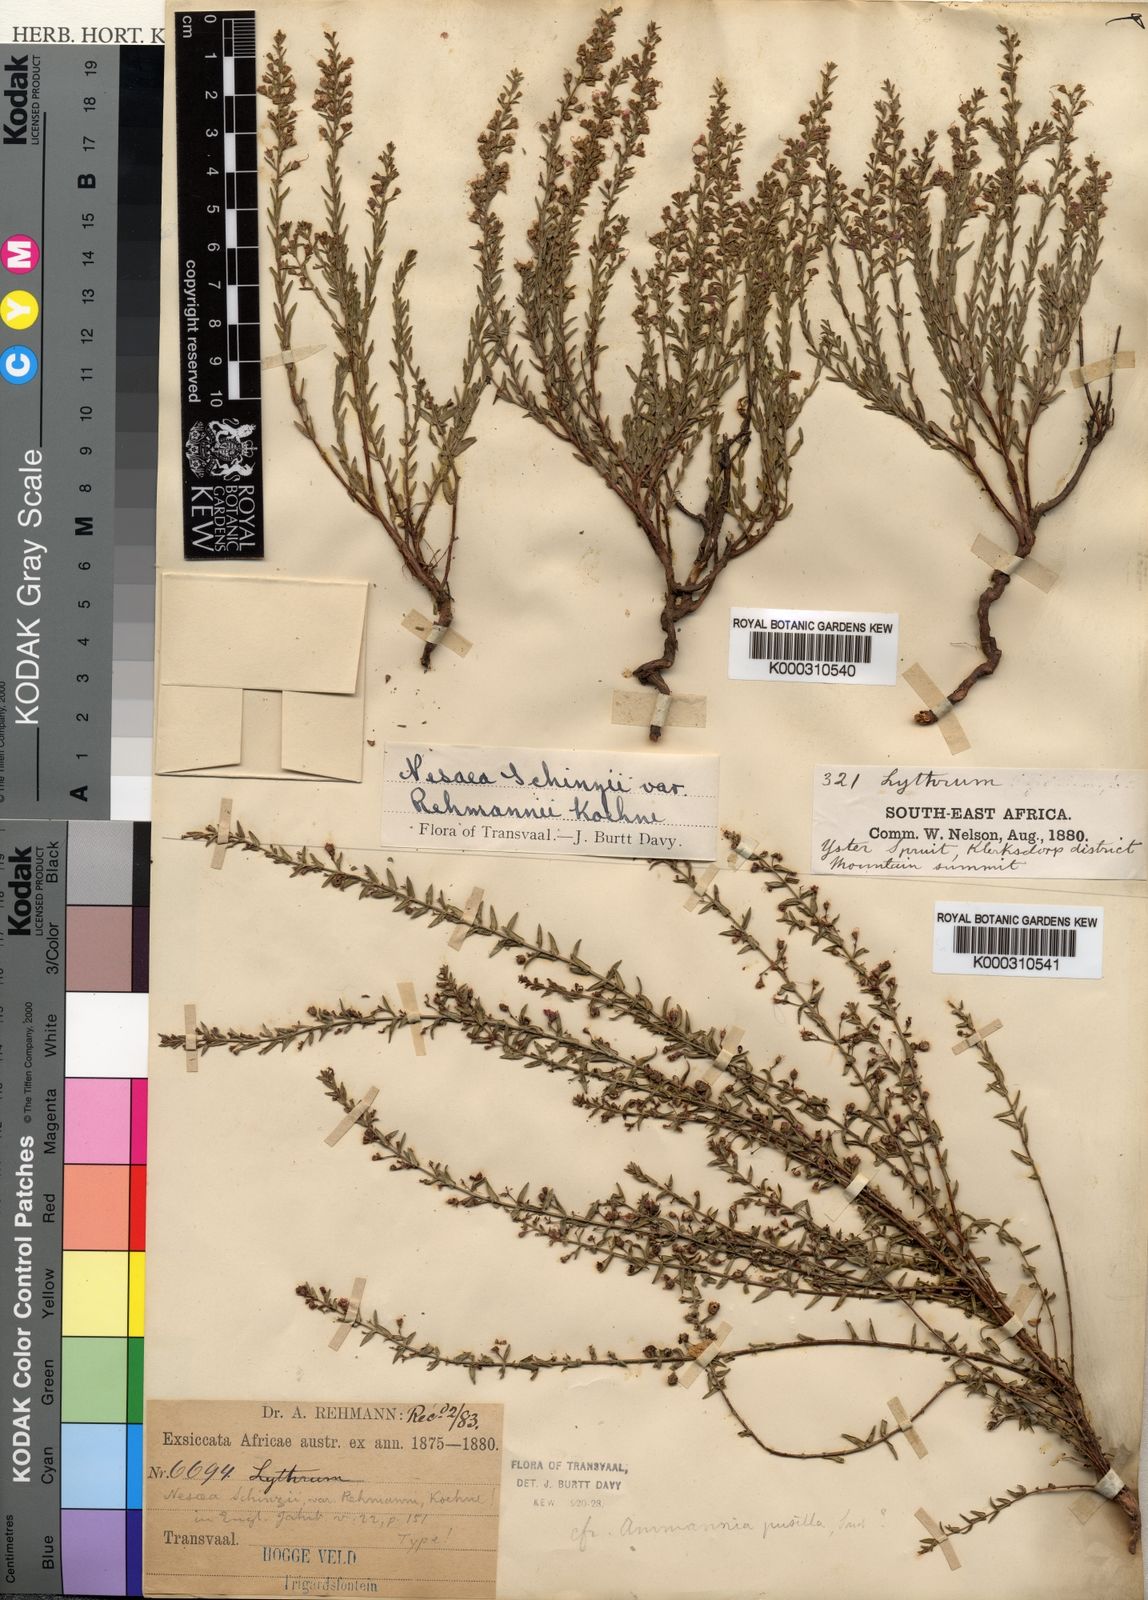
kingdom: Plantae
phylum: Tracheophyta
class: Magnoliopsida
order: Myrtales
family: Lythraceae
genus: Ammannia
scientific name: Ammannia schinzii
